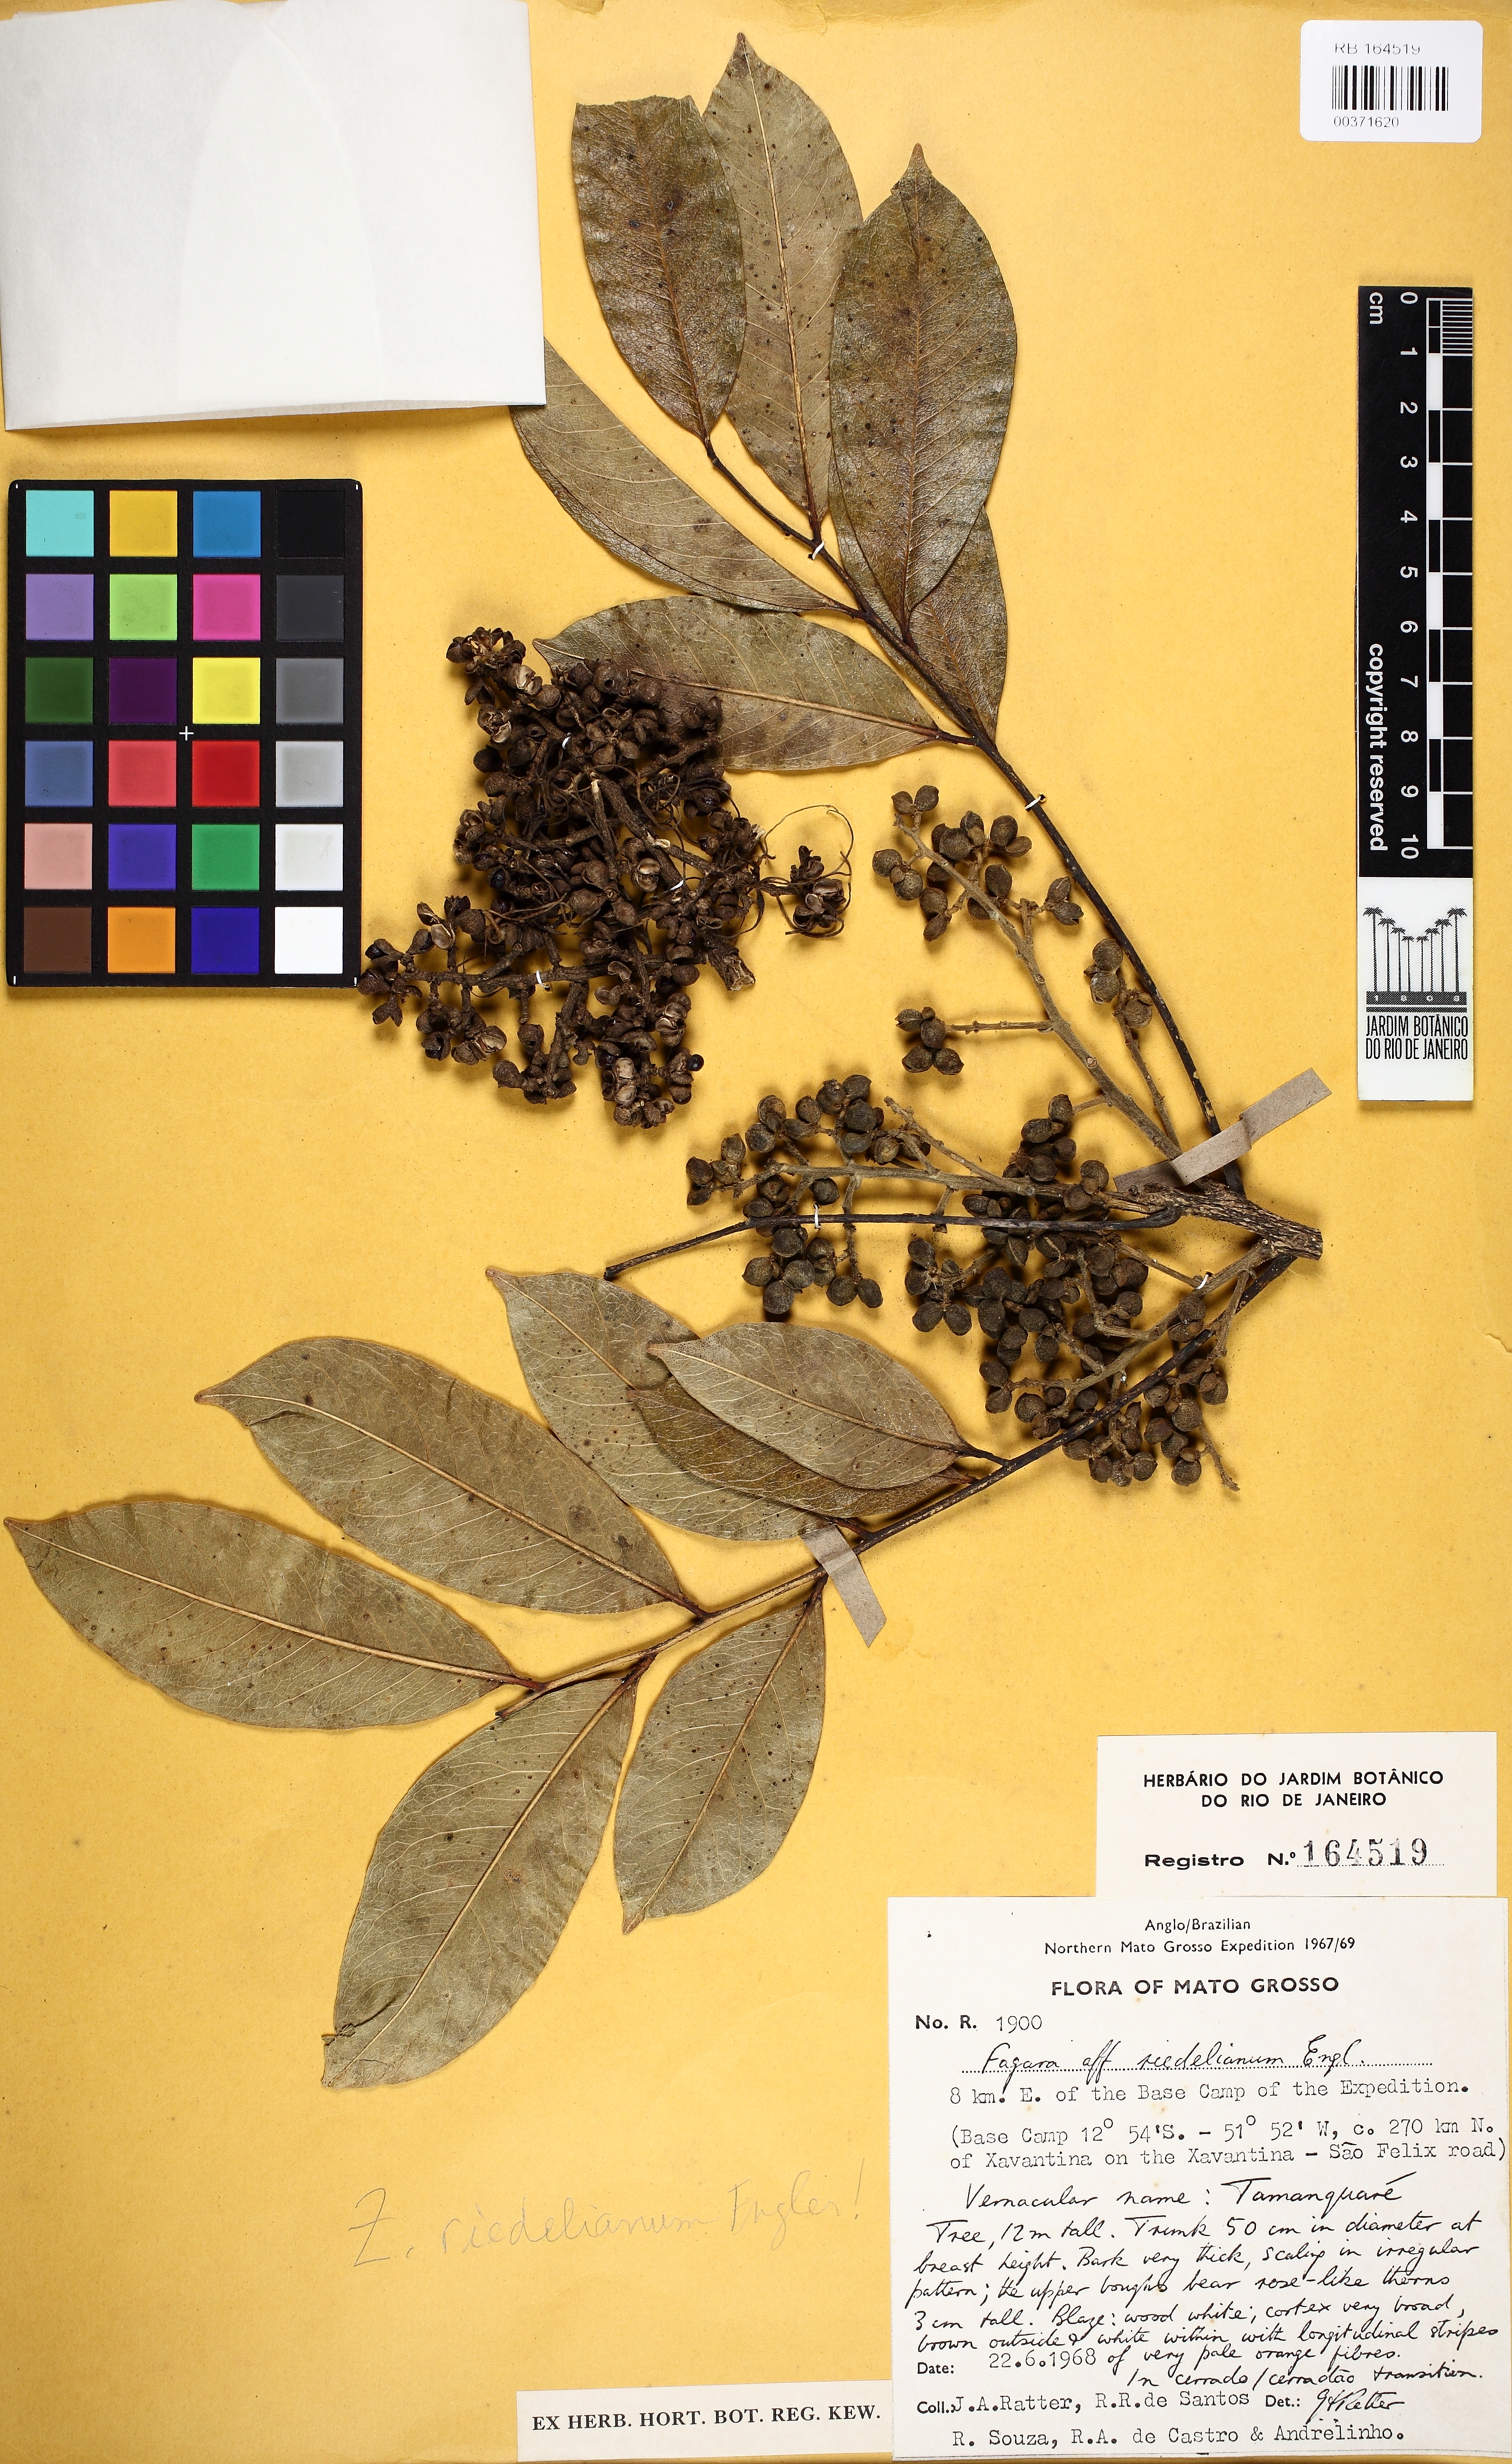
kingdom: Plantae
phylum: Tracheophyta
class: Magnoliopsida
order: Sapindales
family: Rutaceae
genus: Zanthoxylum
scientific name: Zanthoxylum riedelianum
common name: White copal
